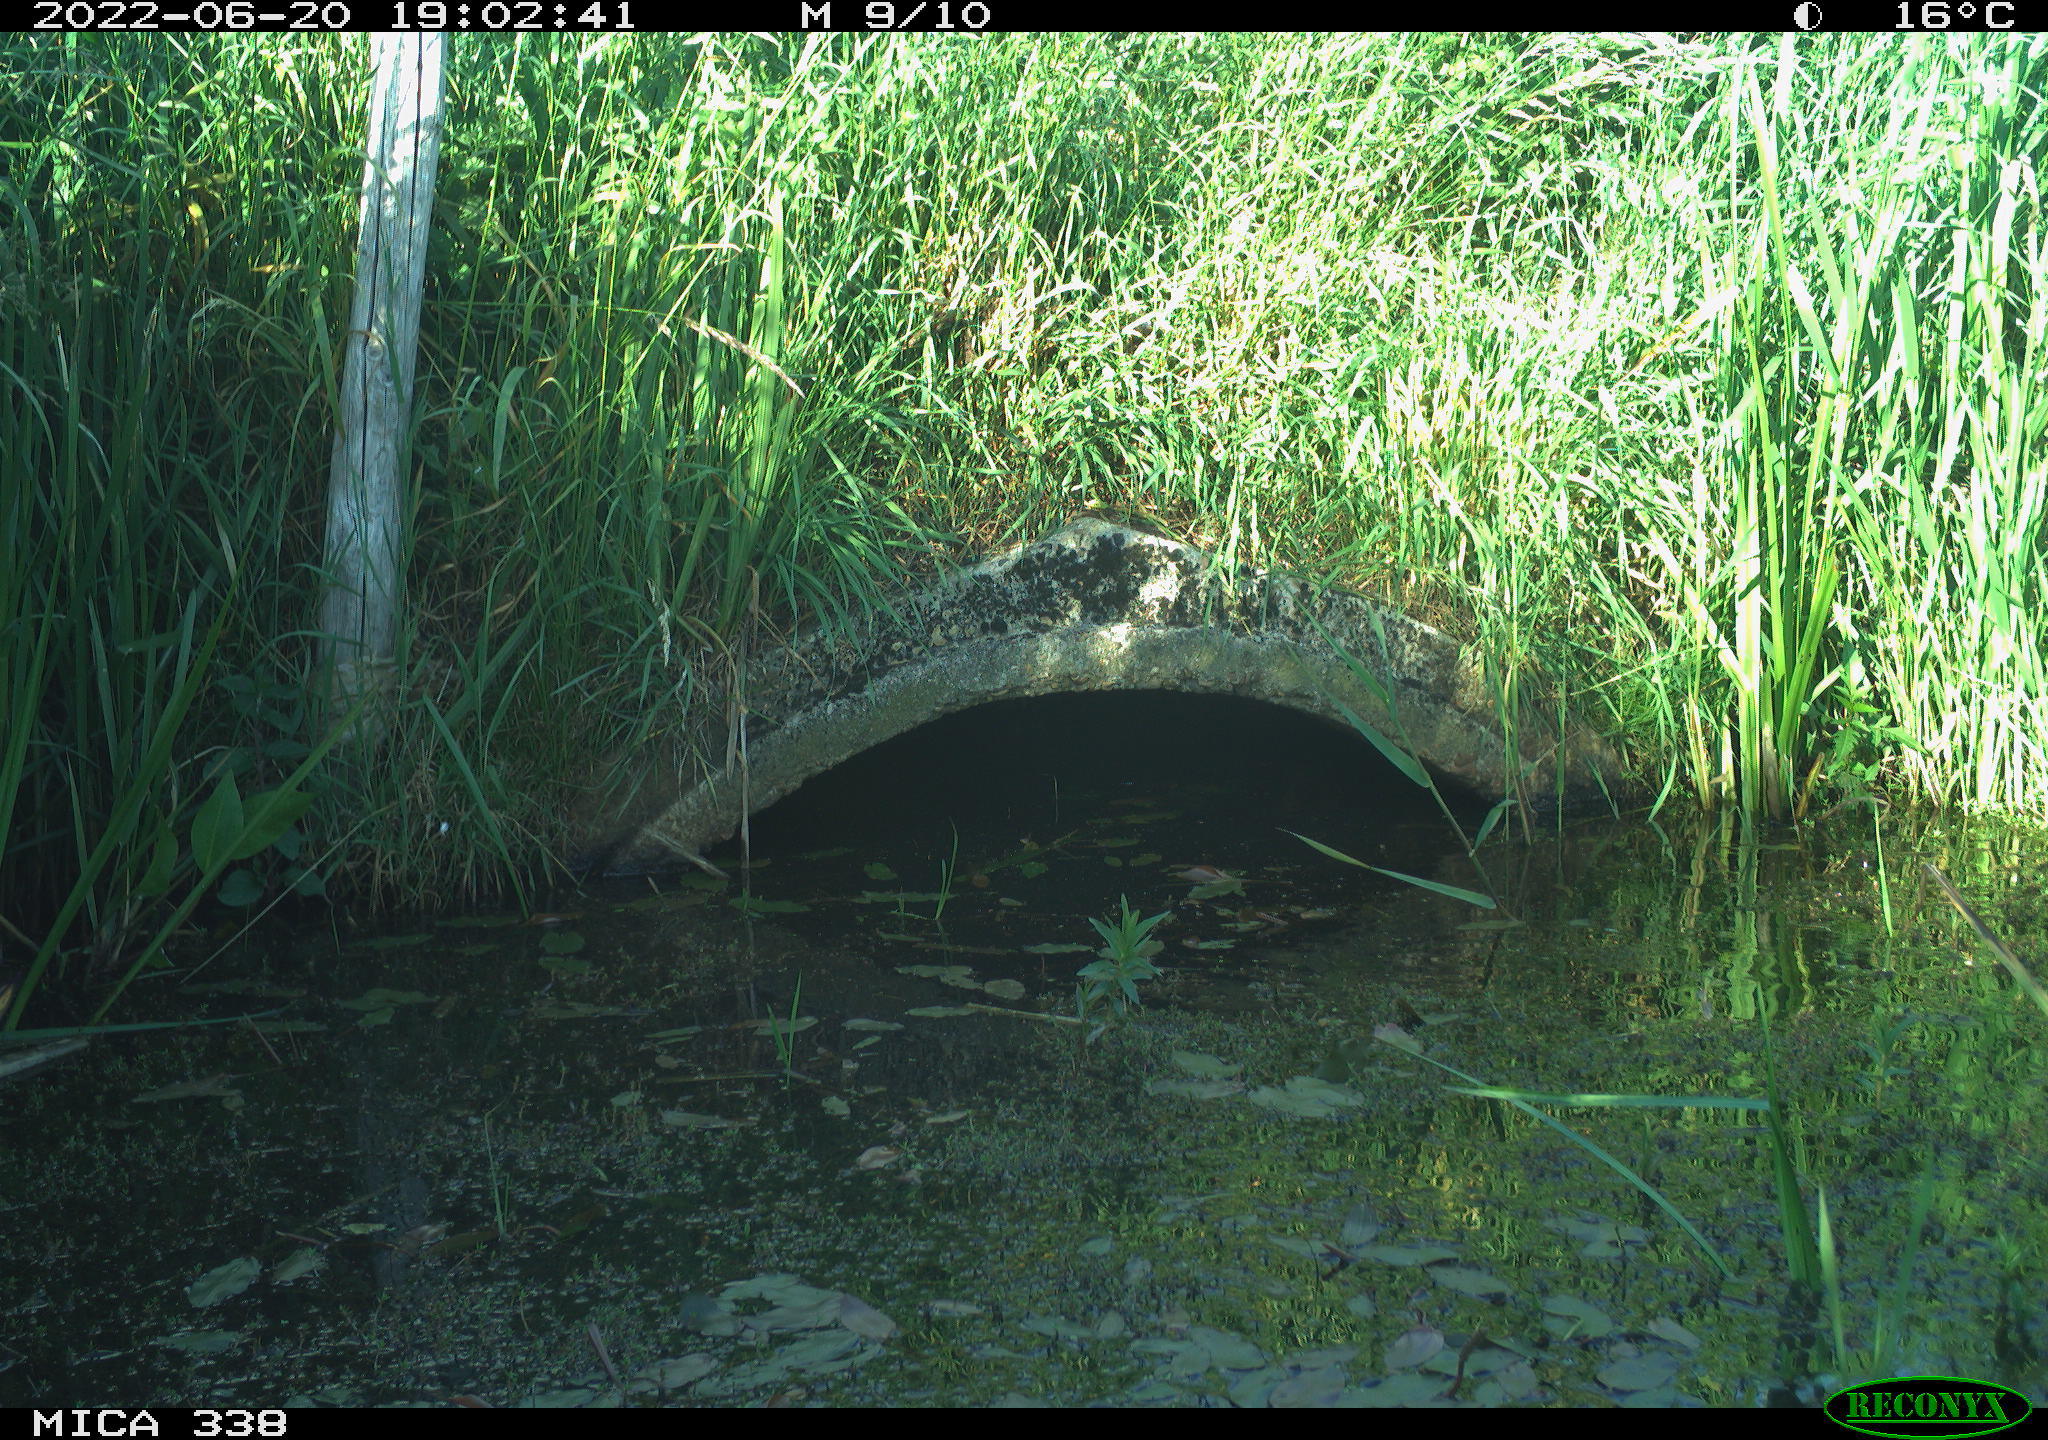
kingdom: Animalia
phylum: Chordata
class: Aves
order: Anseriformes
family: Anatidae
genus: Anas
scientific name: Anas platyrhynchos
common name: Mallard
